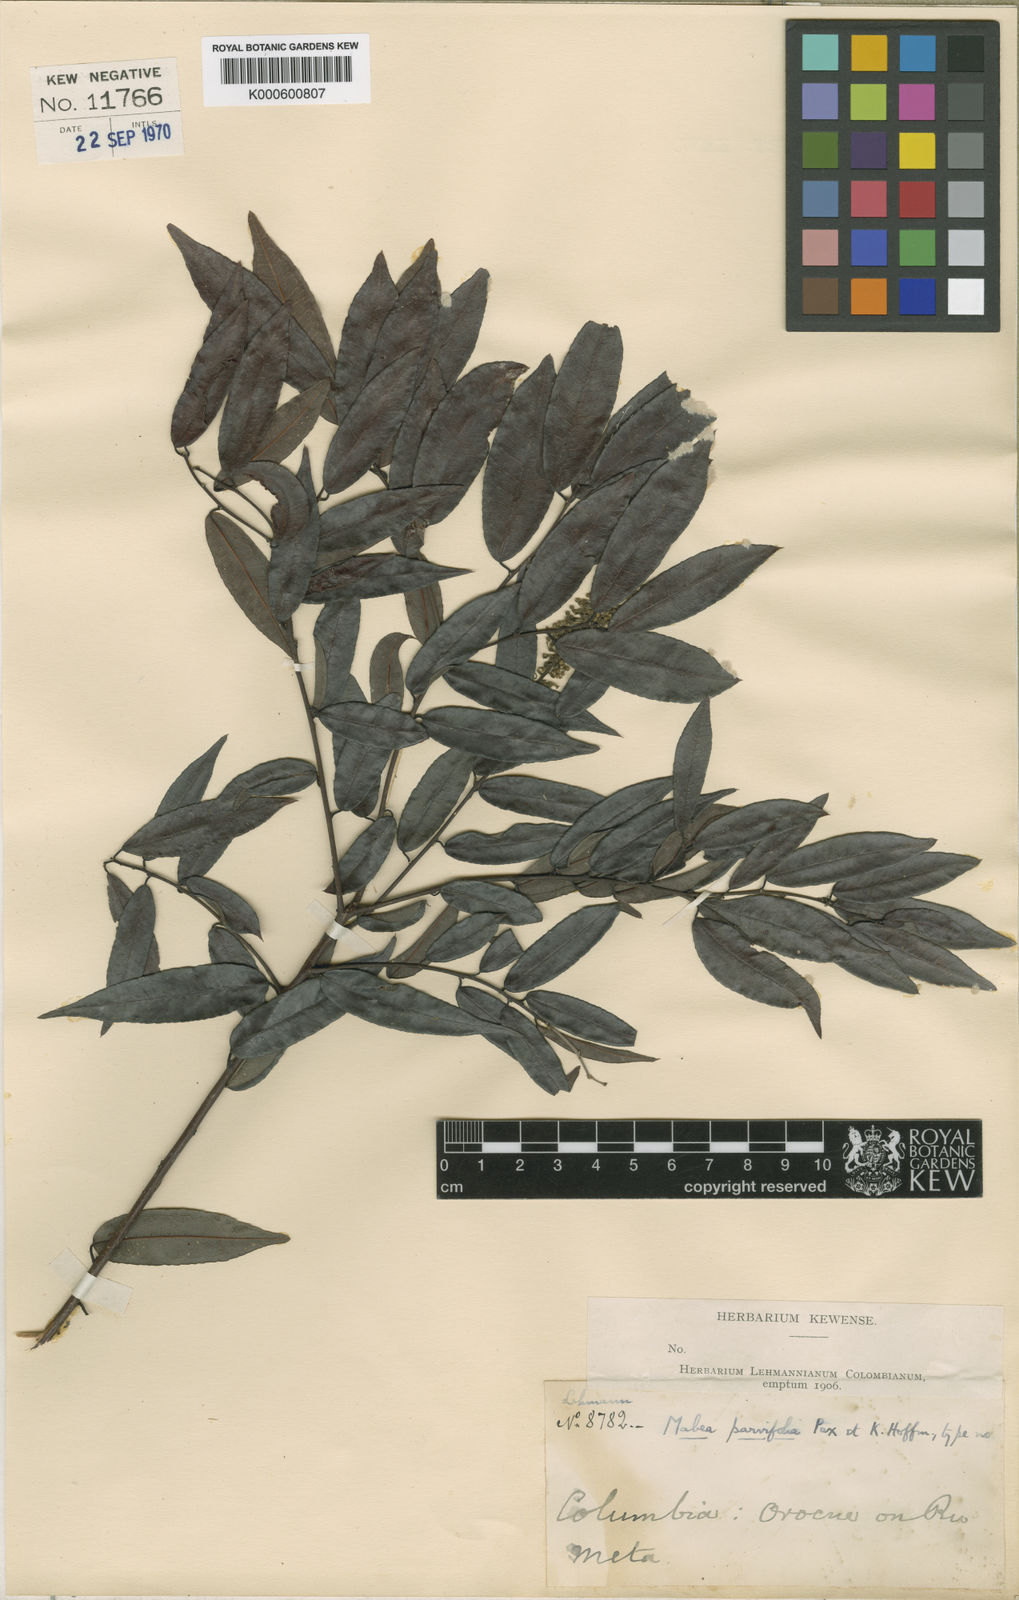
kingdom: Plantae
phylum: Tracheophyta
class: Magnoliopsida
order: Malpighiales
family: Euphorbiaceae
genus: Mabea
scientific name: Mabea trianae
